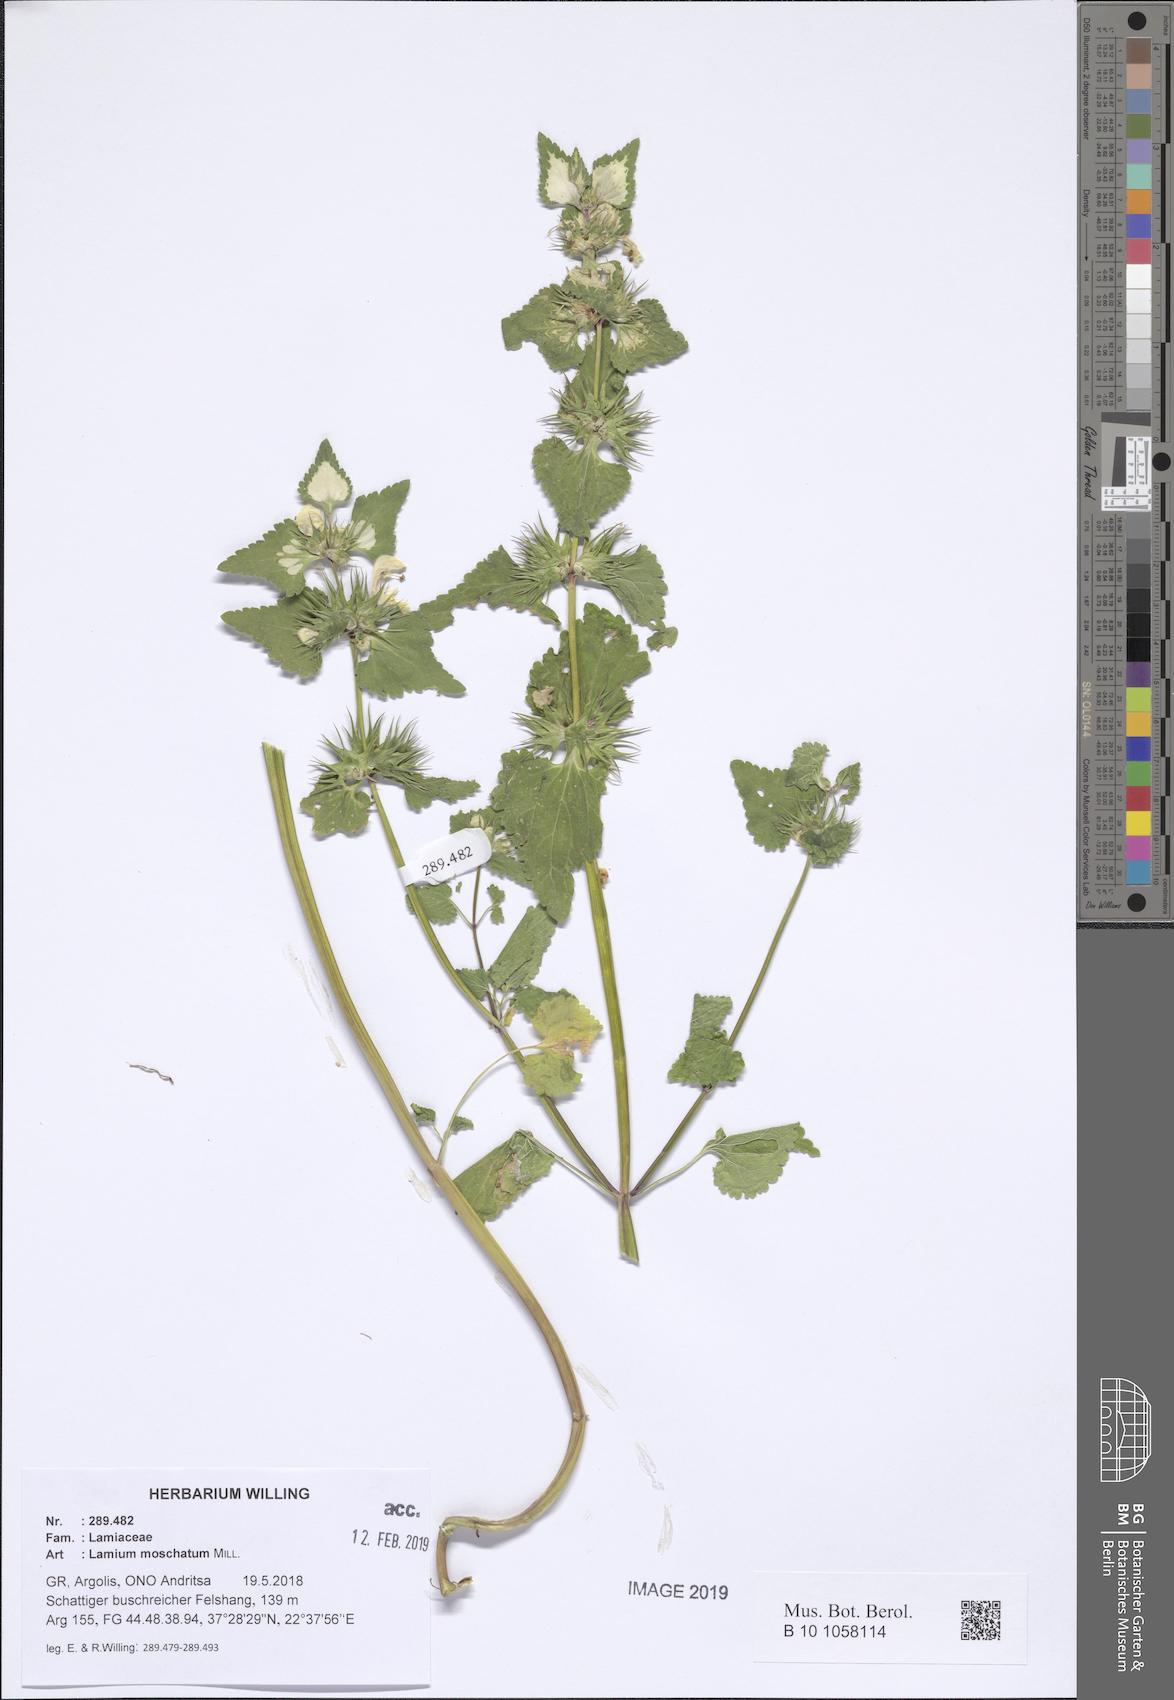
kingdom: Plantae
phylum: Tracheophyta
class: Magnoliopsida
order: Lamiales
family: Lamiaceae
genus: Lamium
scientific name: Lamium moschatum
